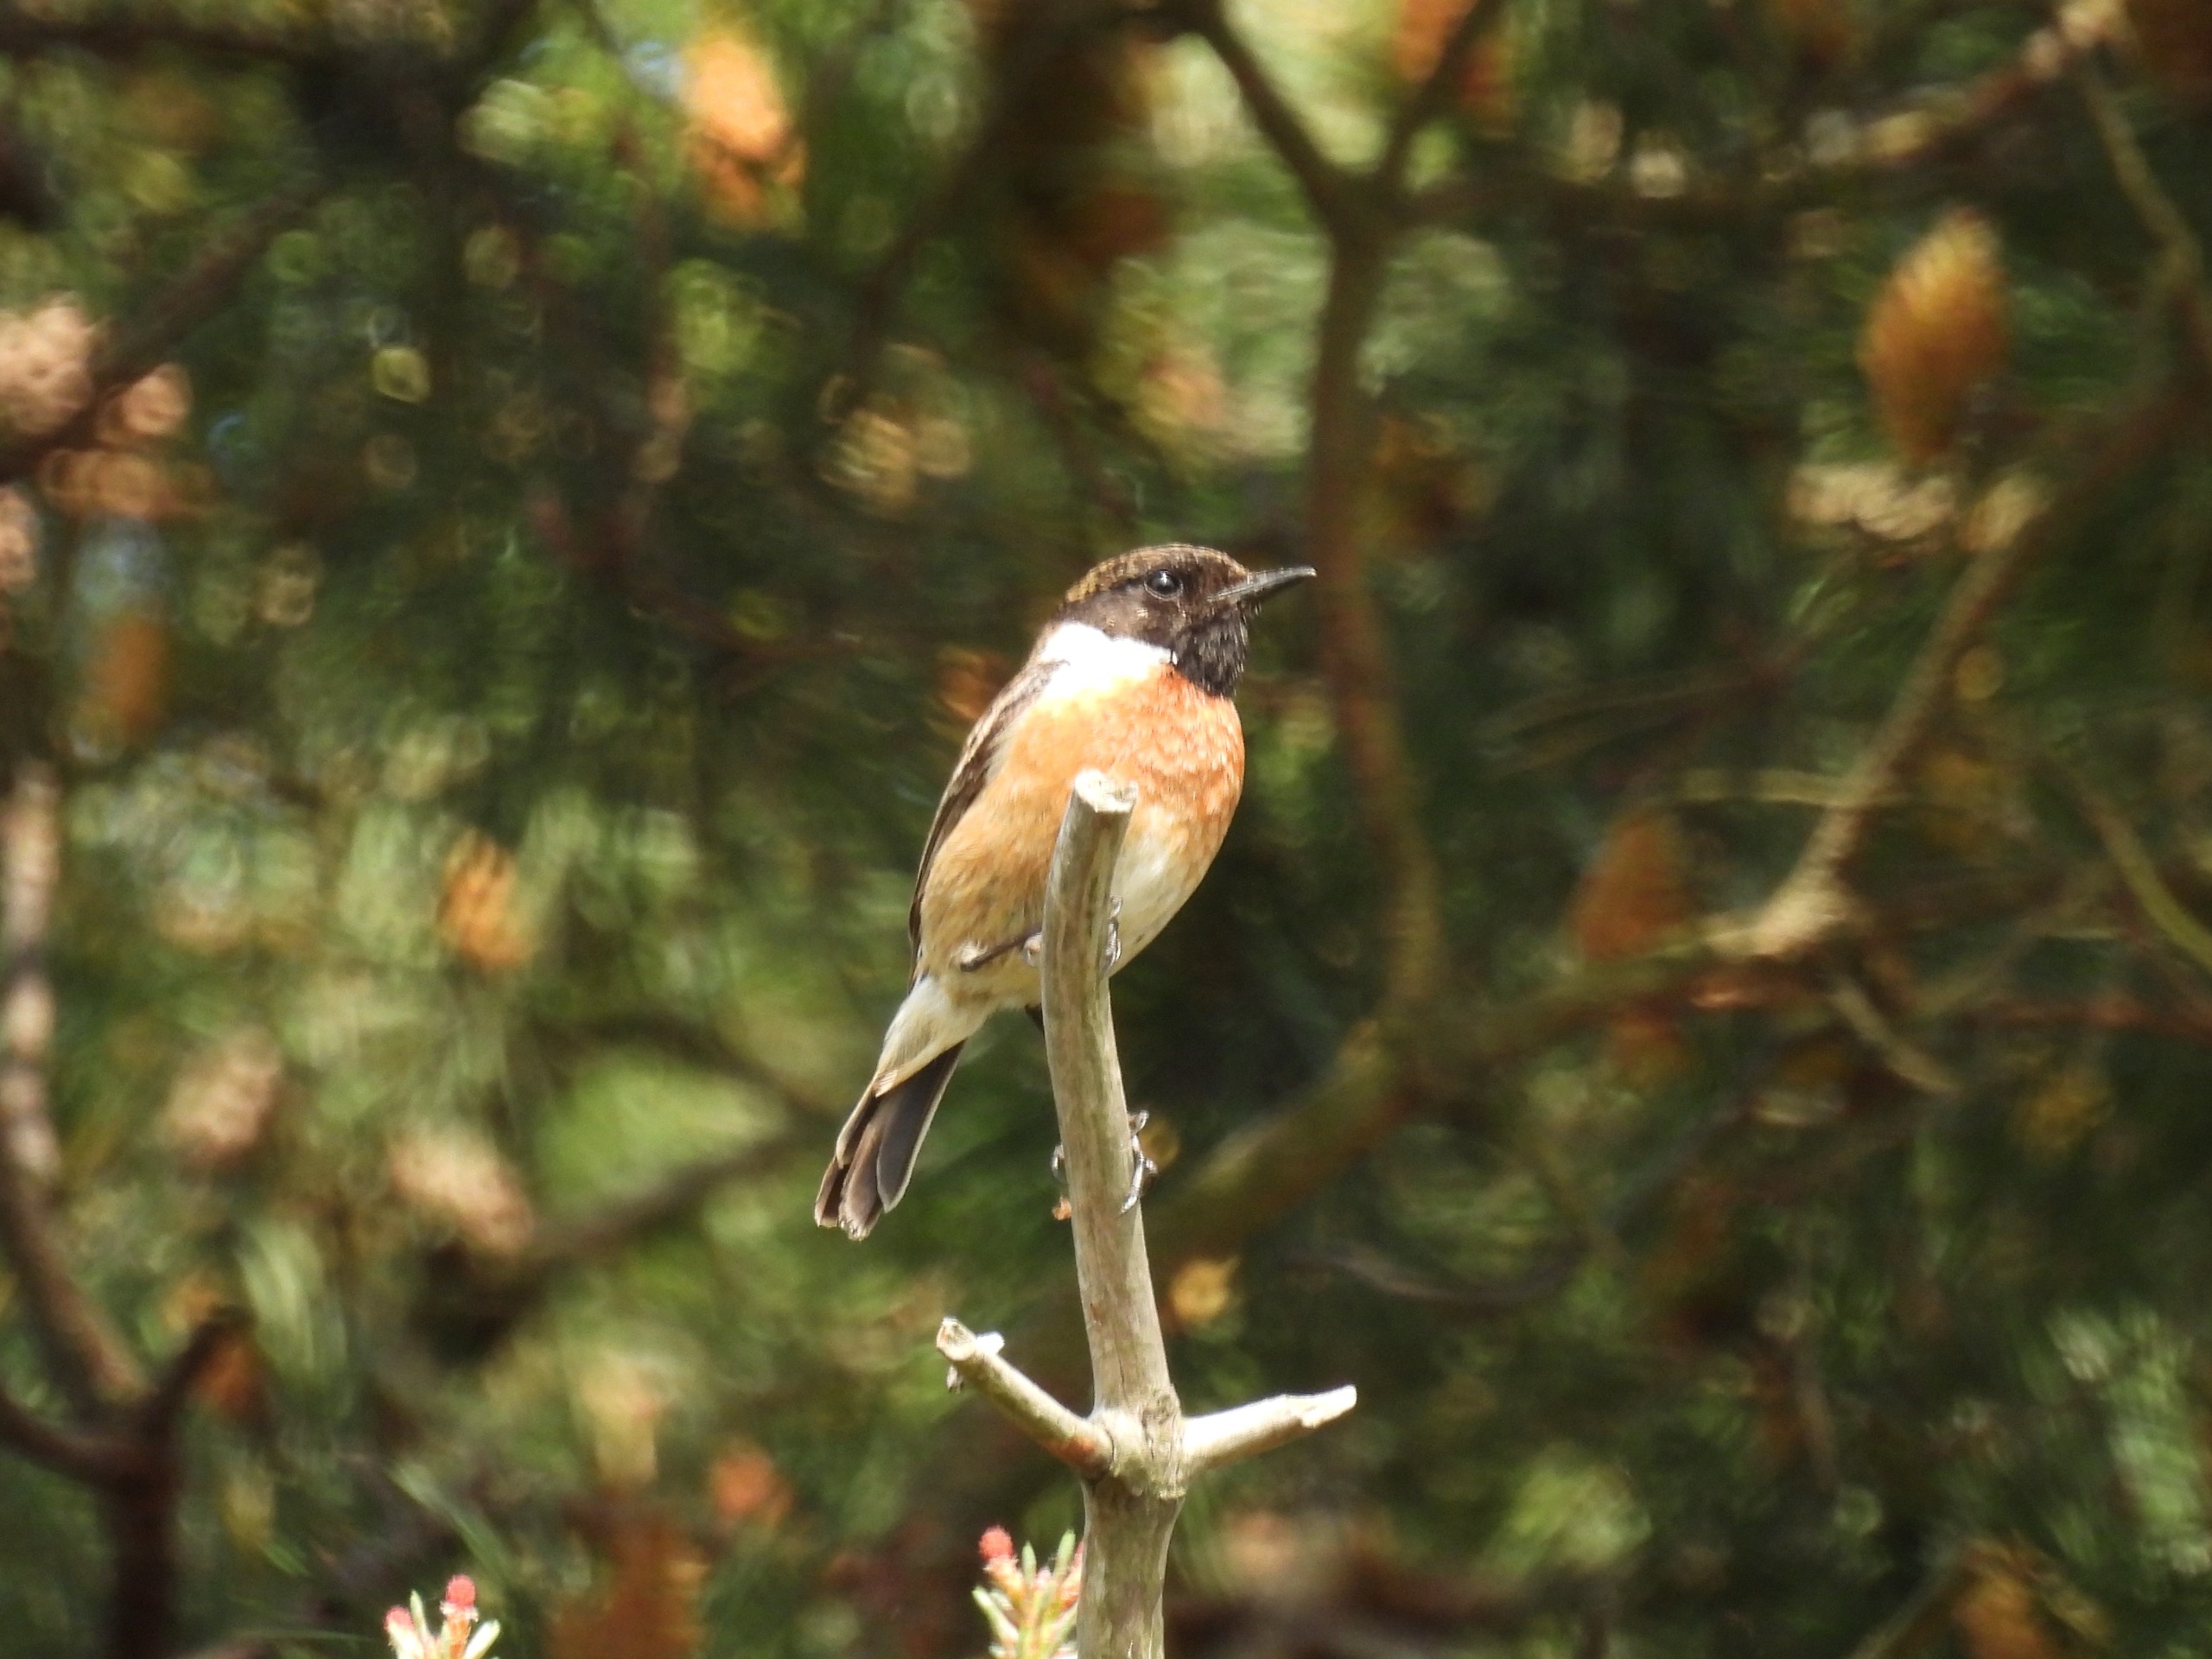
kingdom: Animalia
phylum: Chordata
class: Aves
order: Passeriformes
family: Muscicapidae
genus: Saxicola
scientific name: Saxicola rubicola
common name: Sortstrubet bynkefugl
